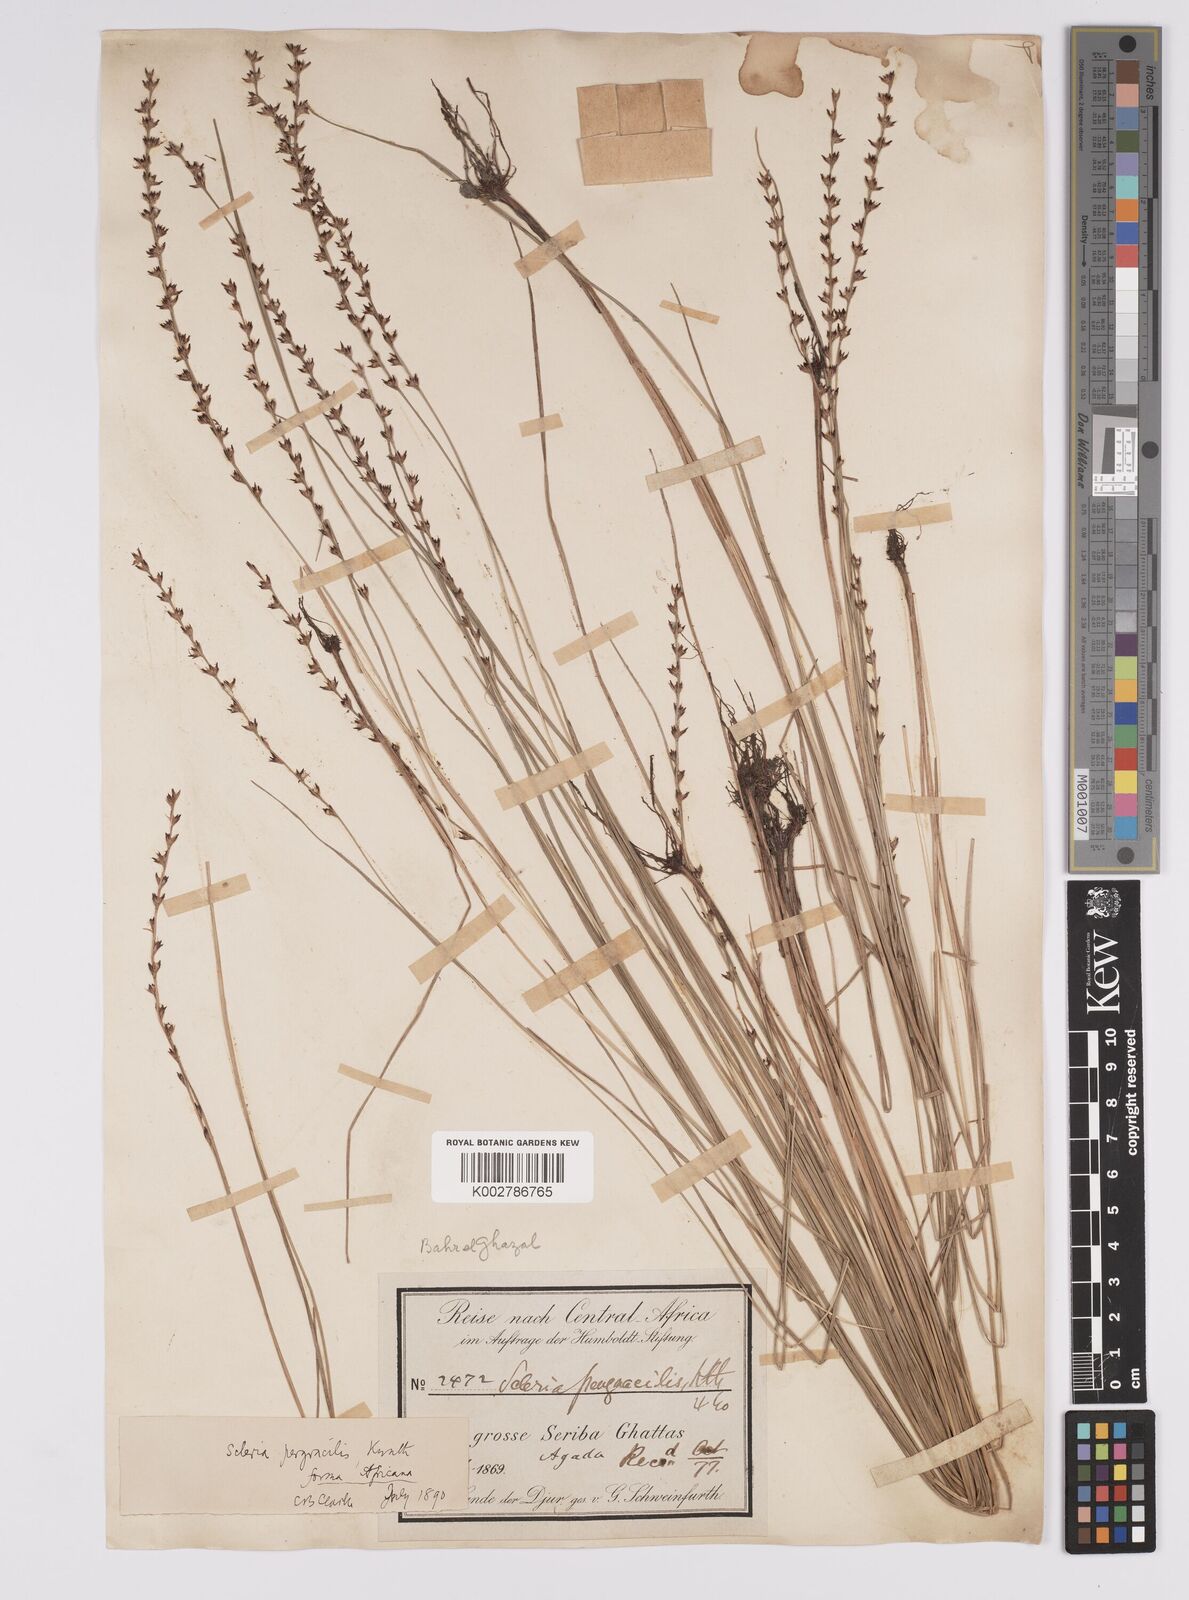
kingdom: Plantae
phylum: Tracheophyta
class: Liliopsida
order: Poales
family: Cyperaceae
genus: Scleria
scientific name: Scleria pergracilis
